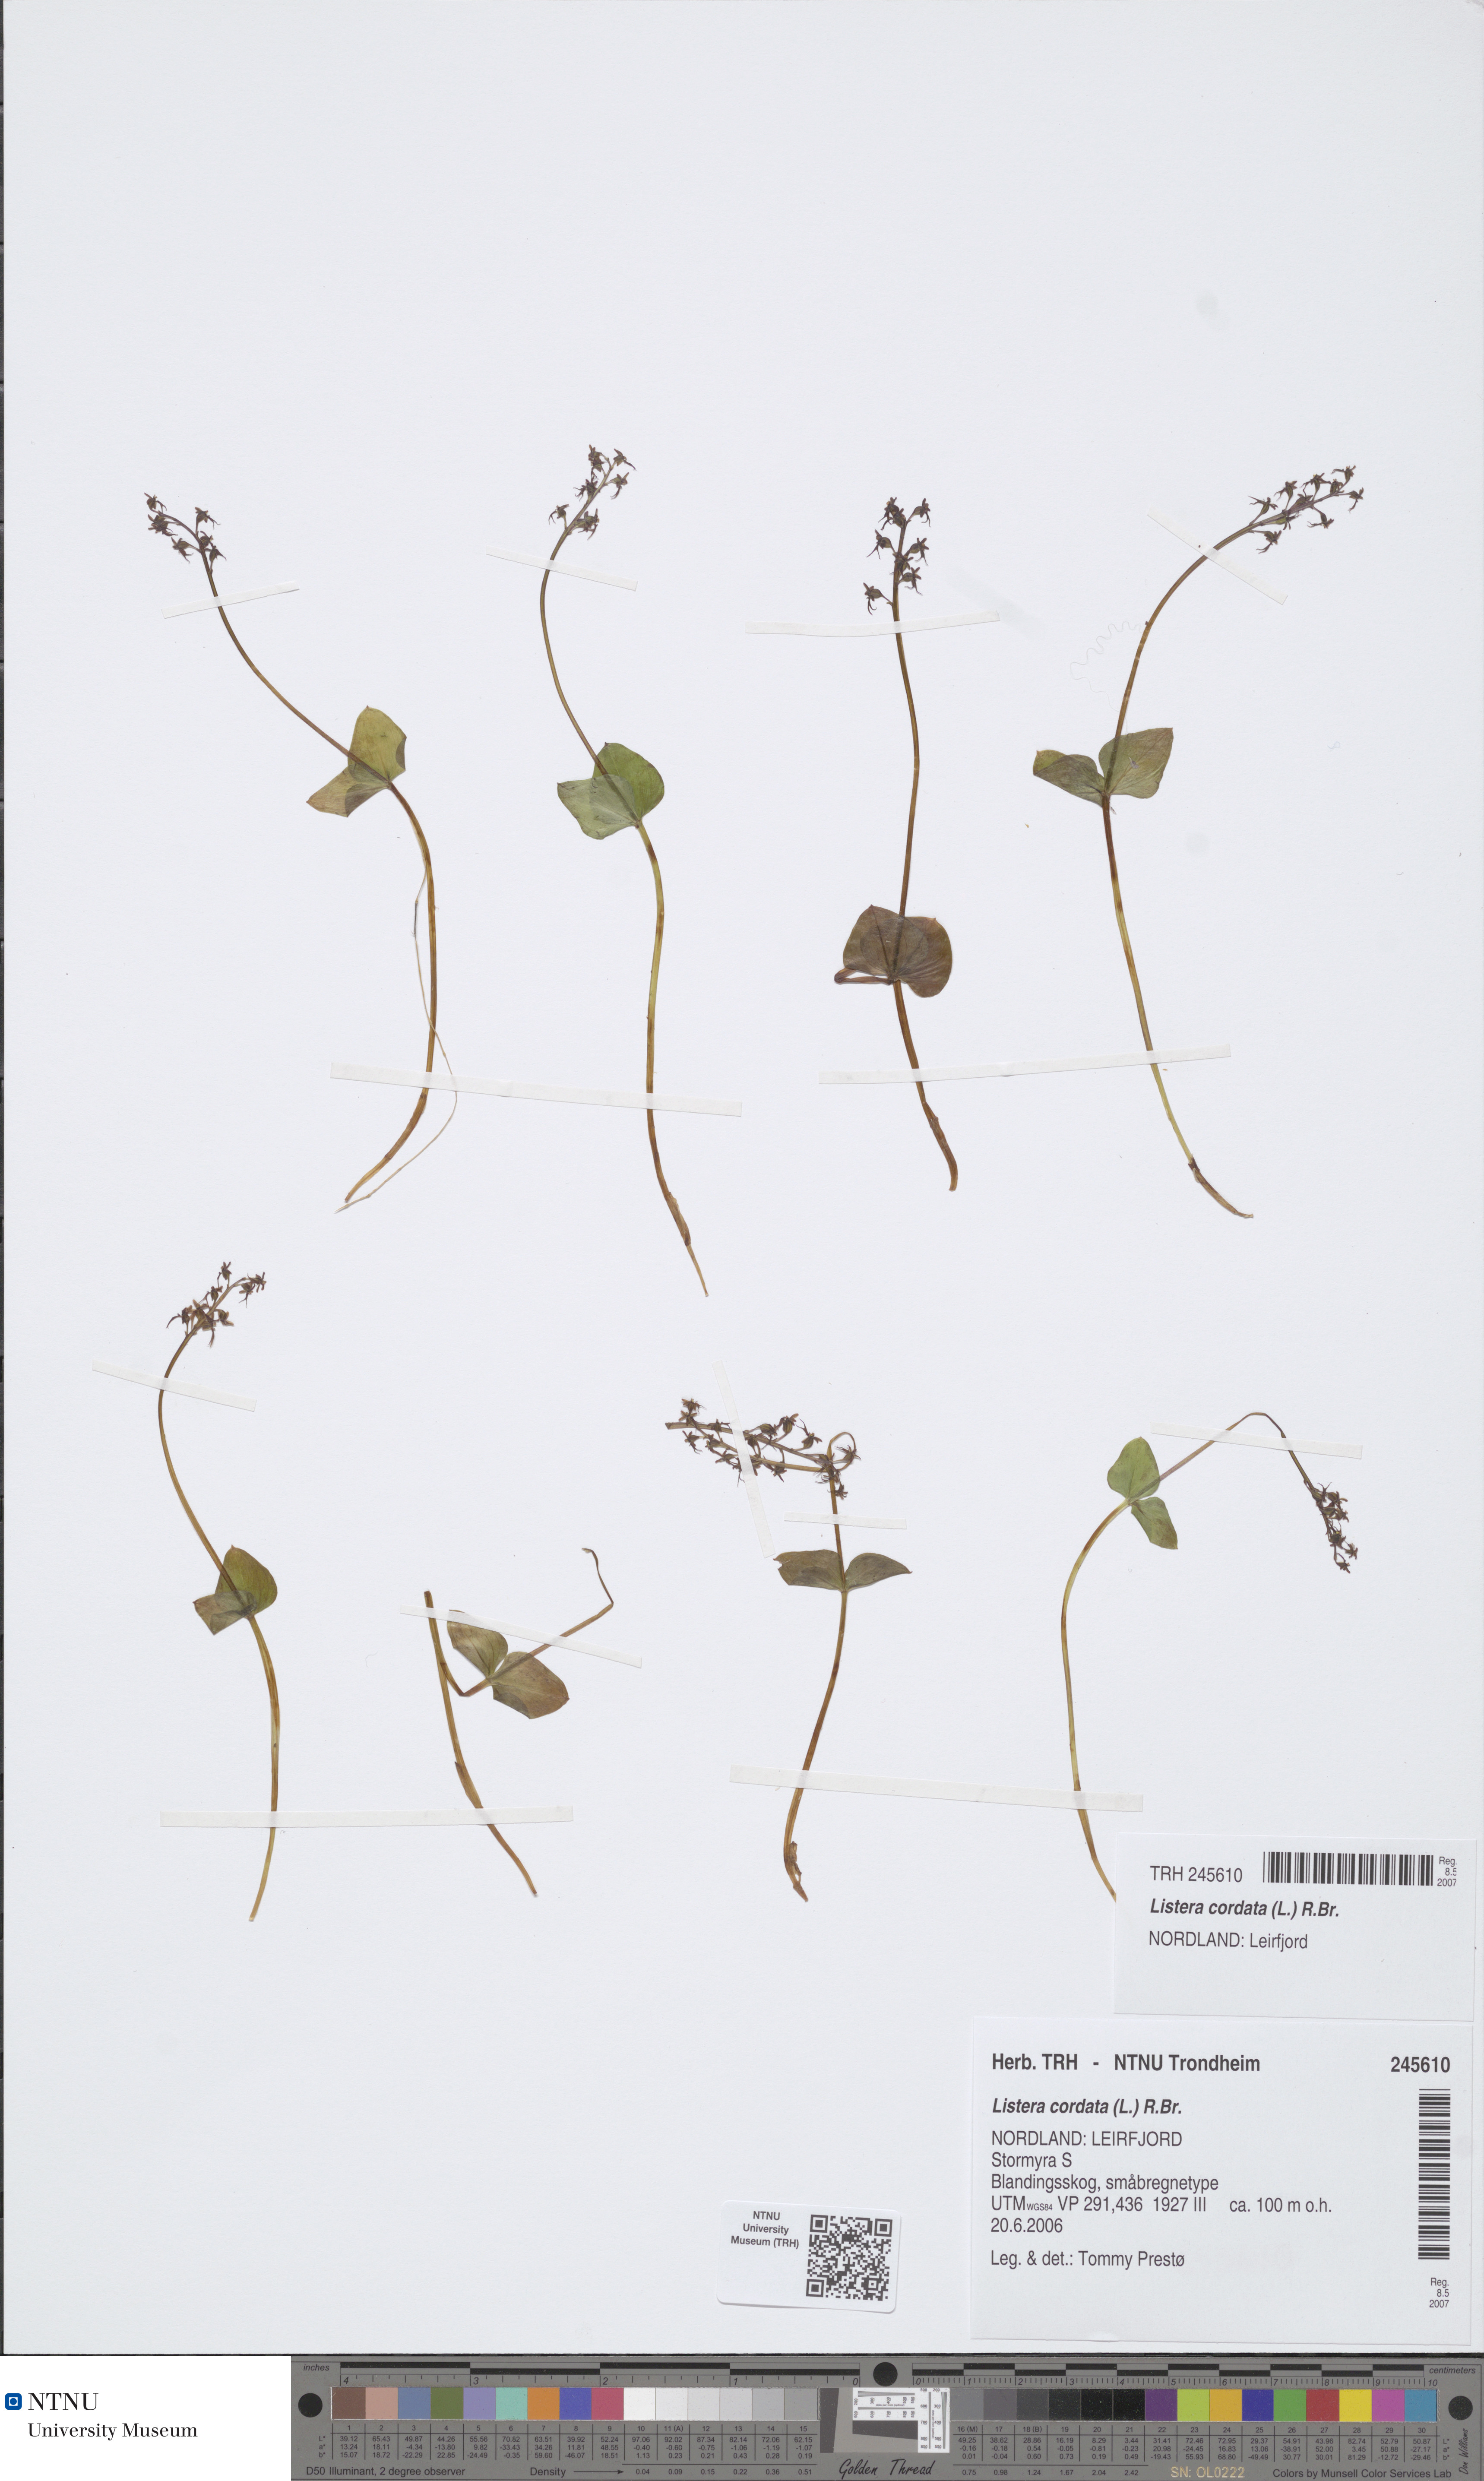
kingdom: Plantae
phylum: Tracheophyta
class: Liliopsida
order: Asparagales
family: Orchidaceae
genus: Neottia
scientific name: Neottia cordata
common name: Lesser twayblade
